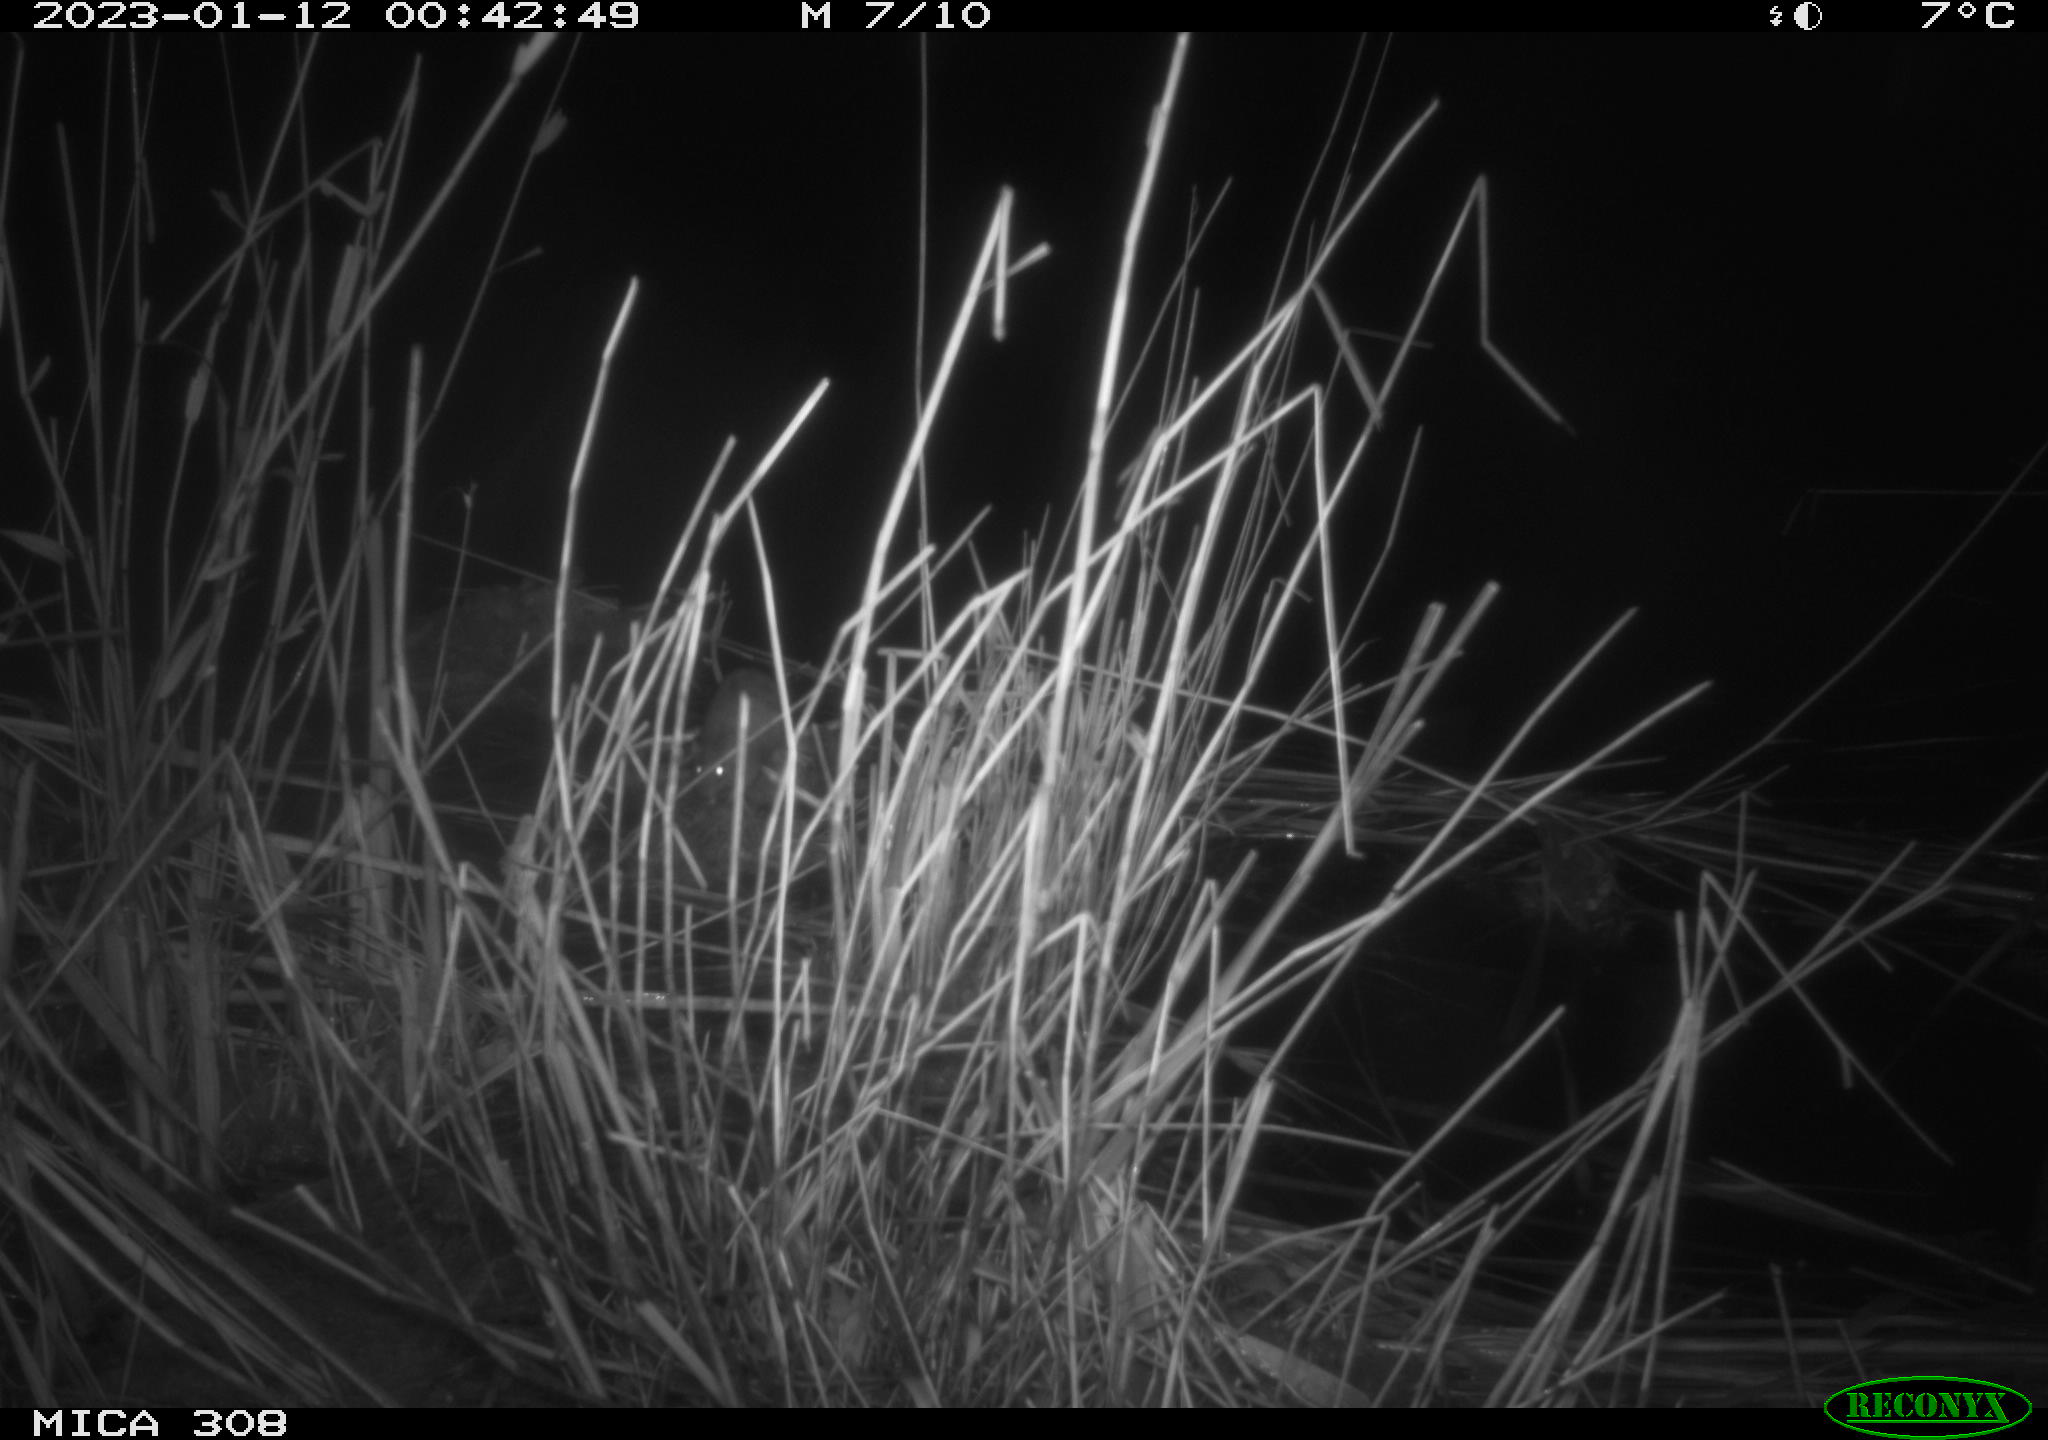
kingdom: Animalia
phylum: Chordata
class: Mammalia
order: Rodentia
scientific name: Rodentia
